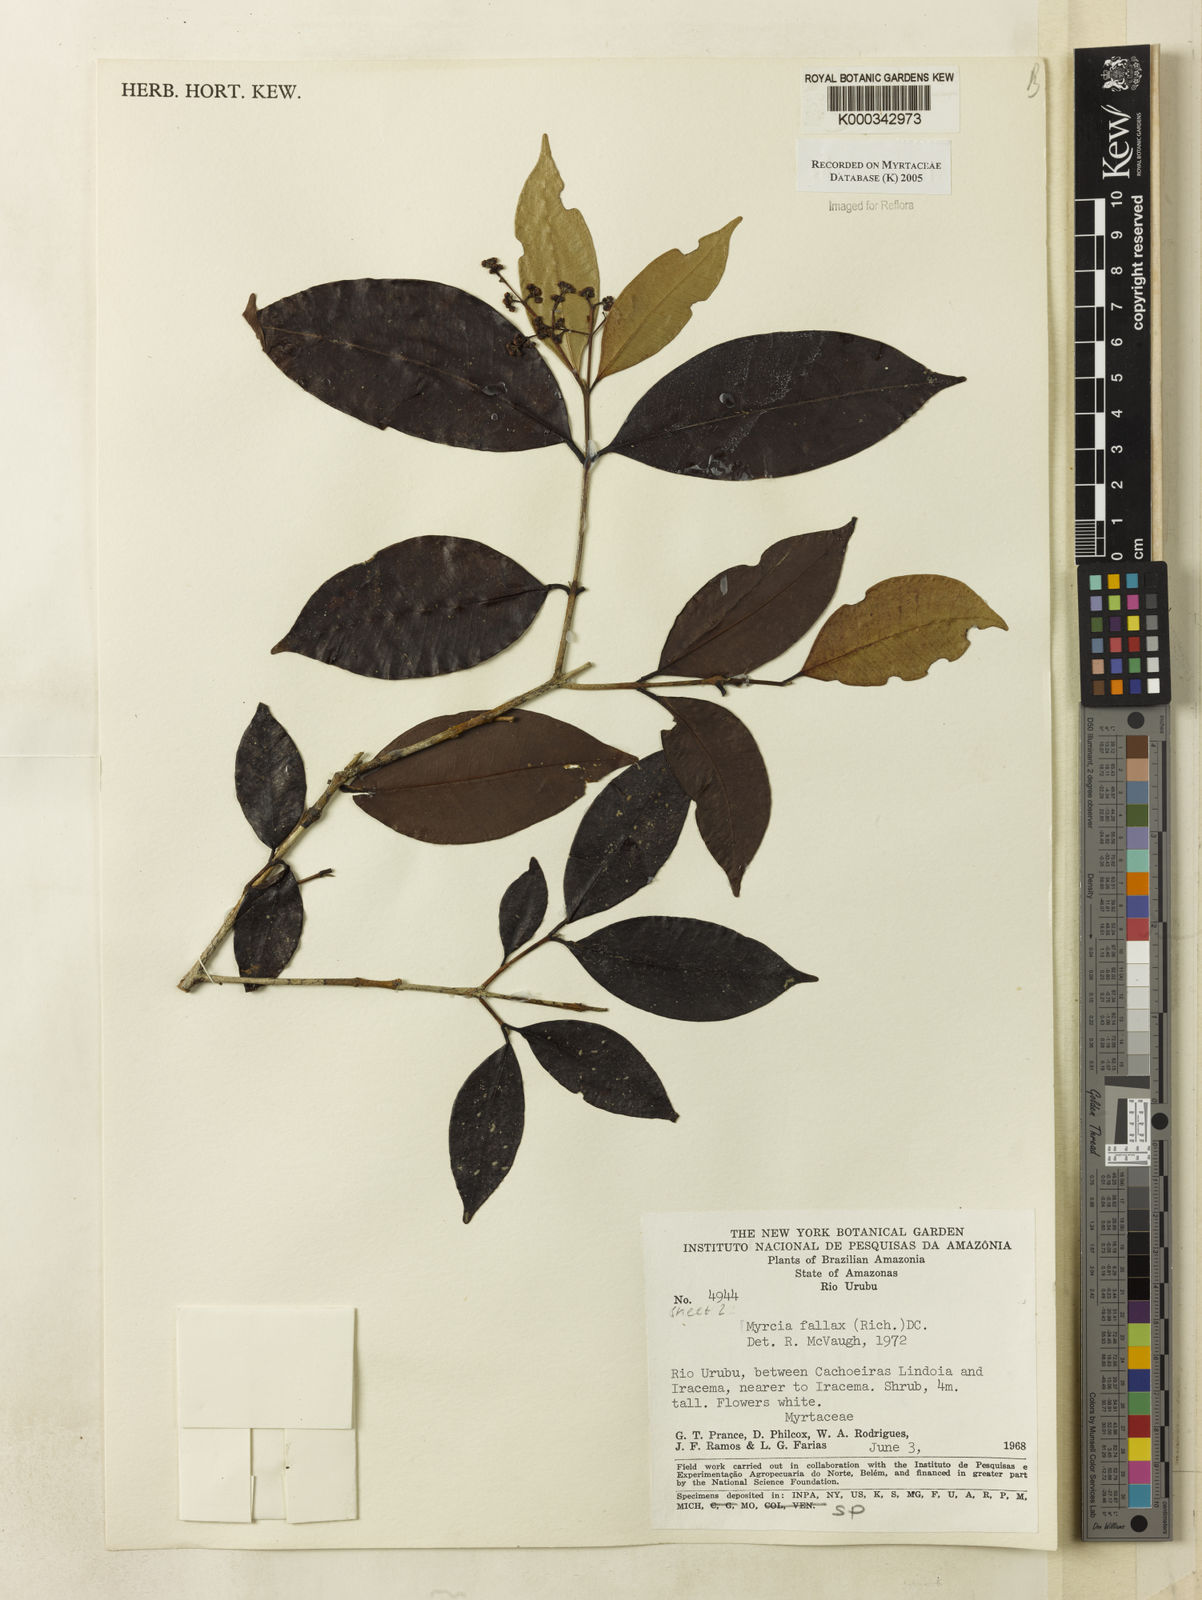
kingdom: Plantae
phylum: Tracheophyta
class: Magnoliopsida
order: Myrtales
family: Myrtaceae
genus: Myrcia
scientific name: Myrcia splendens
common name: Surinam cherry
